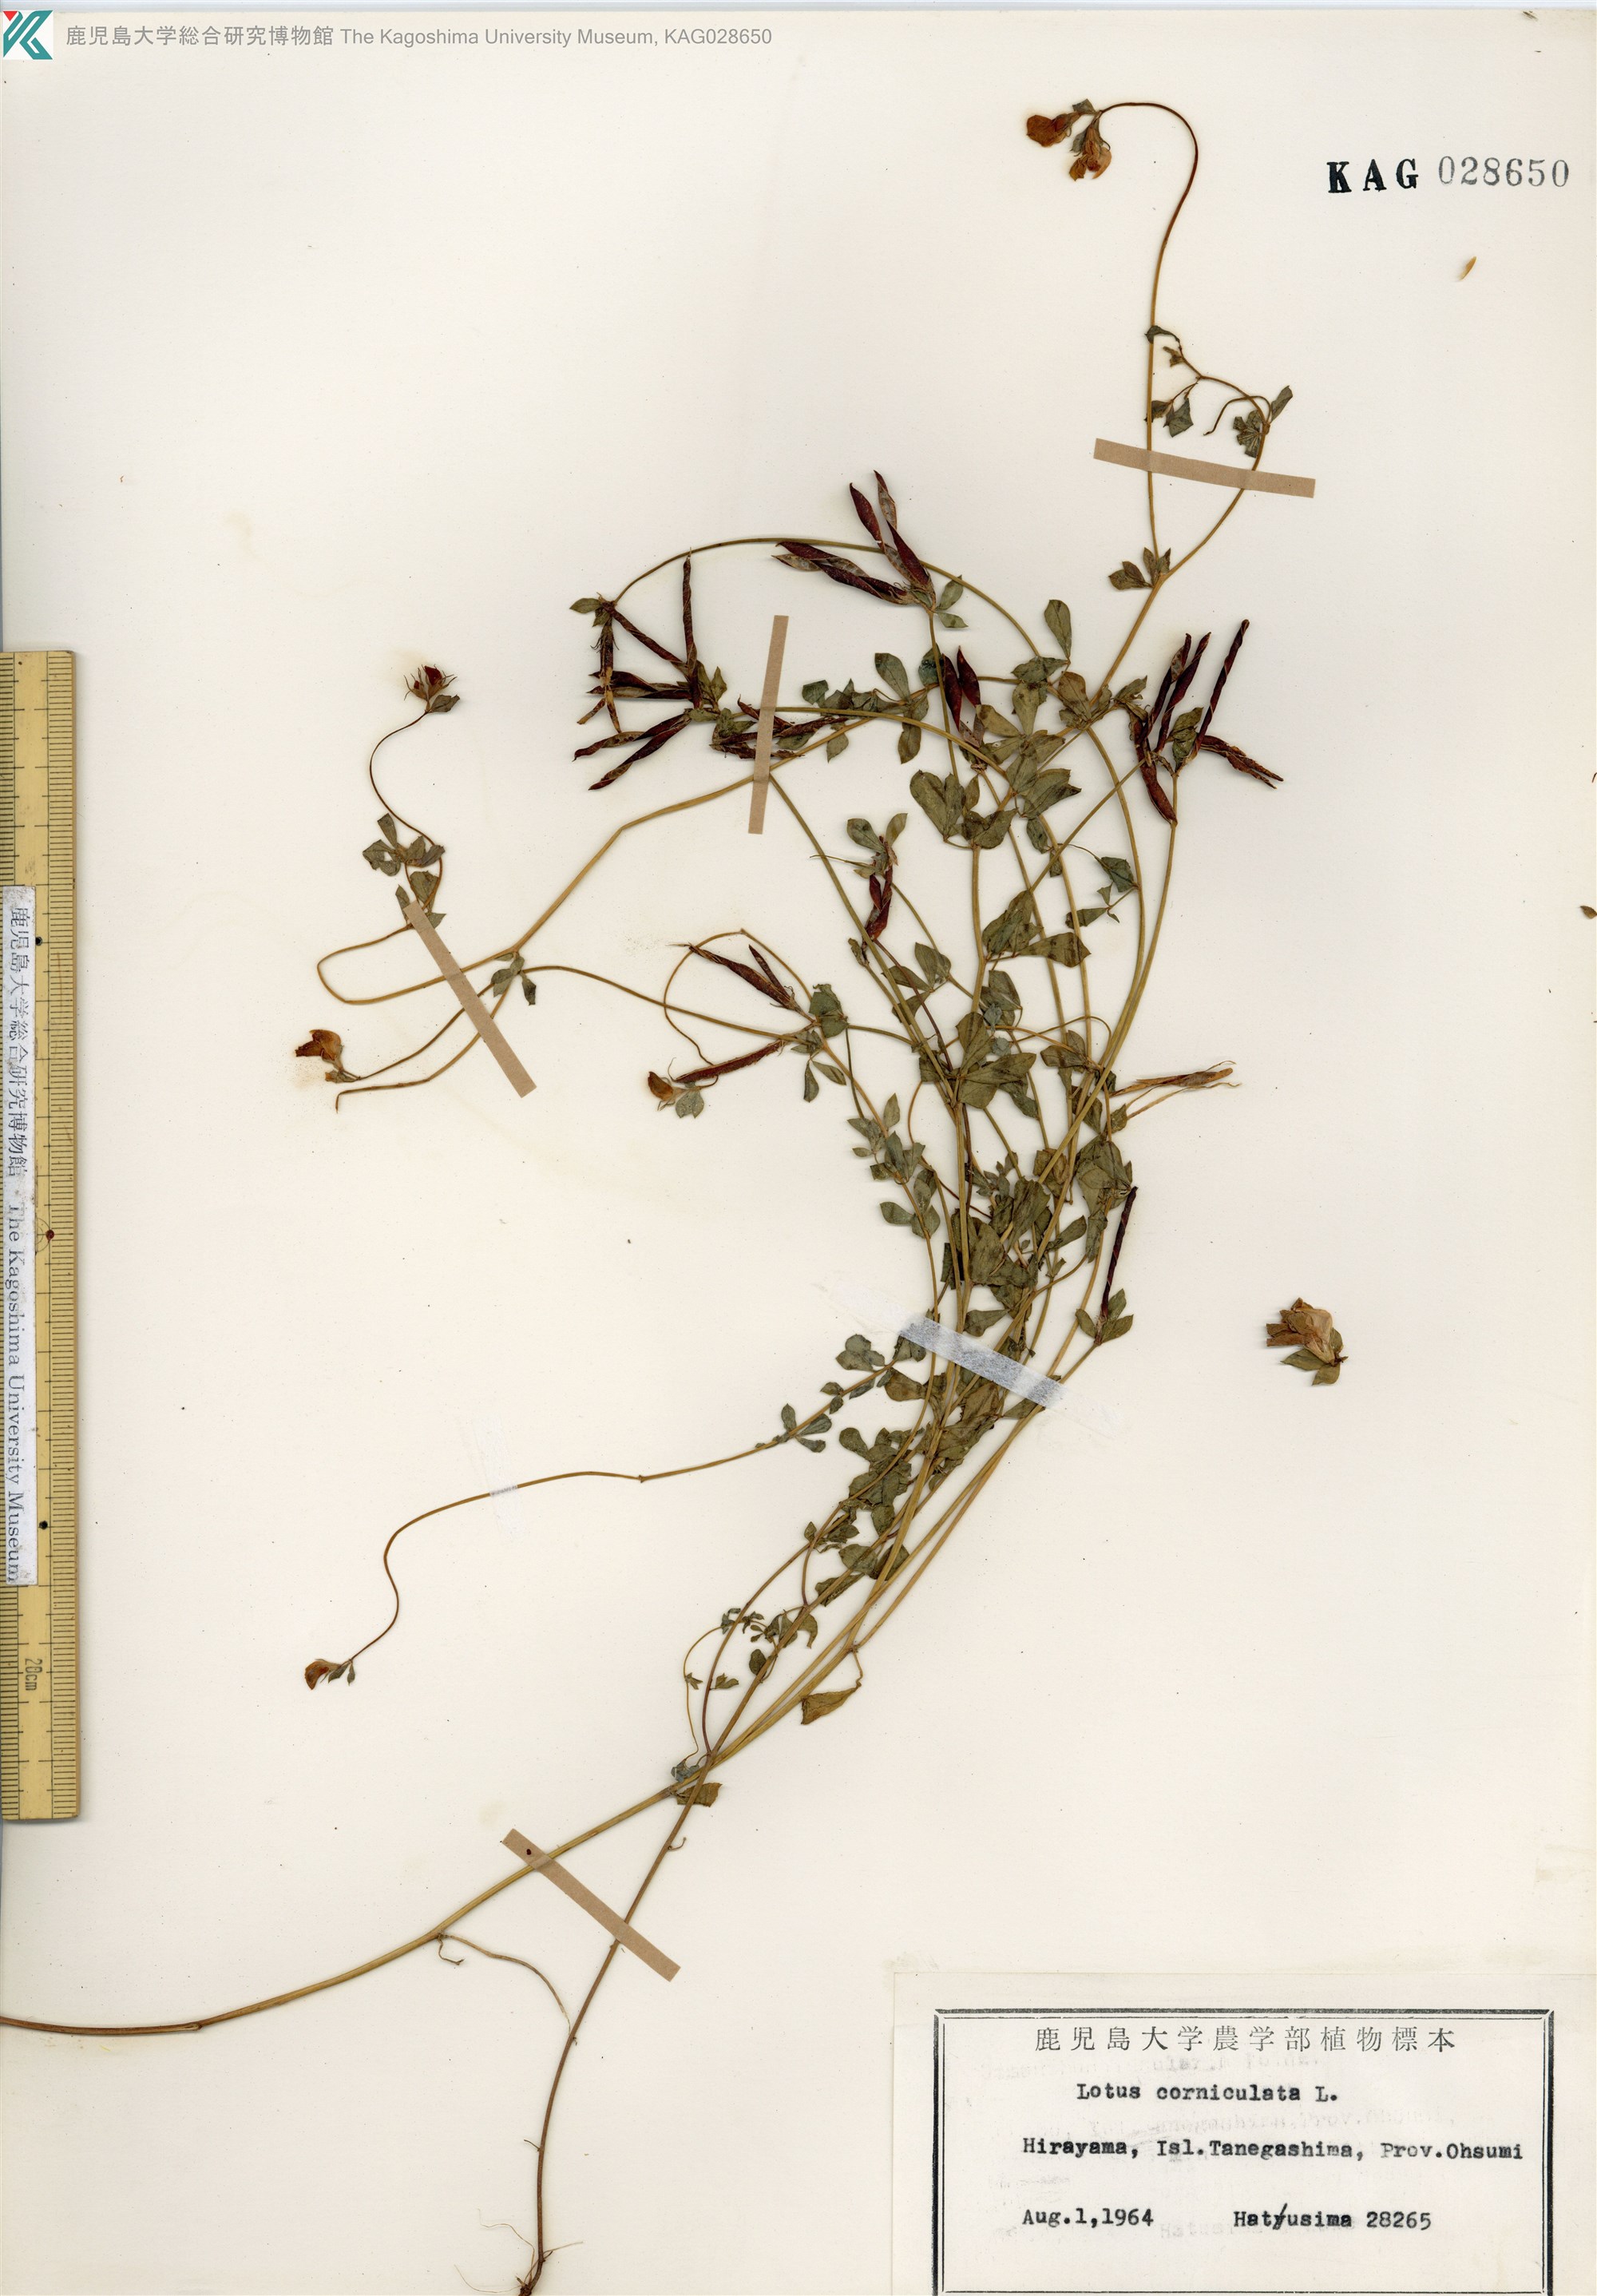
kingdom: Plantae
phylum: Tracheophyta
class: Magnoliopsida
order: Fabales
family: Fabaceae
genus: Lotus
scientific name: Lotus japonicus
